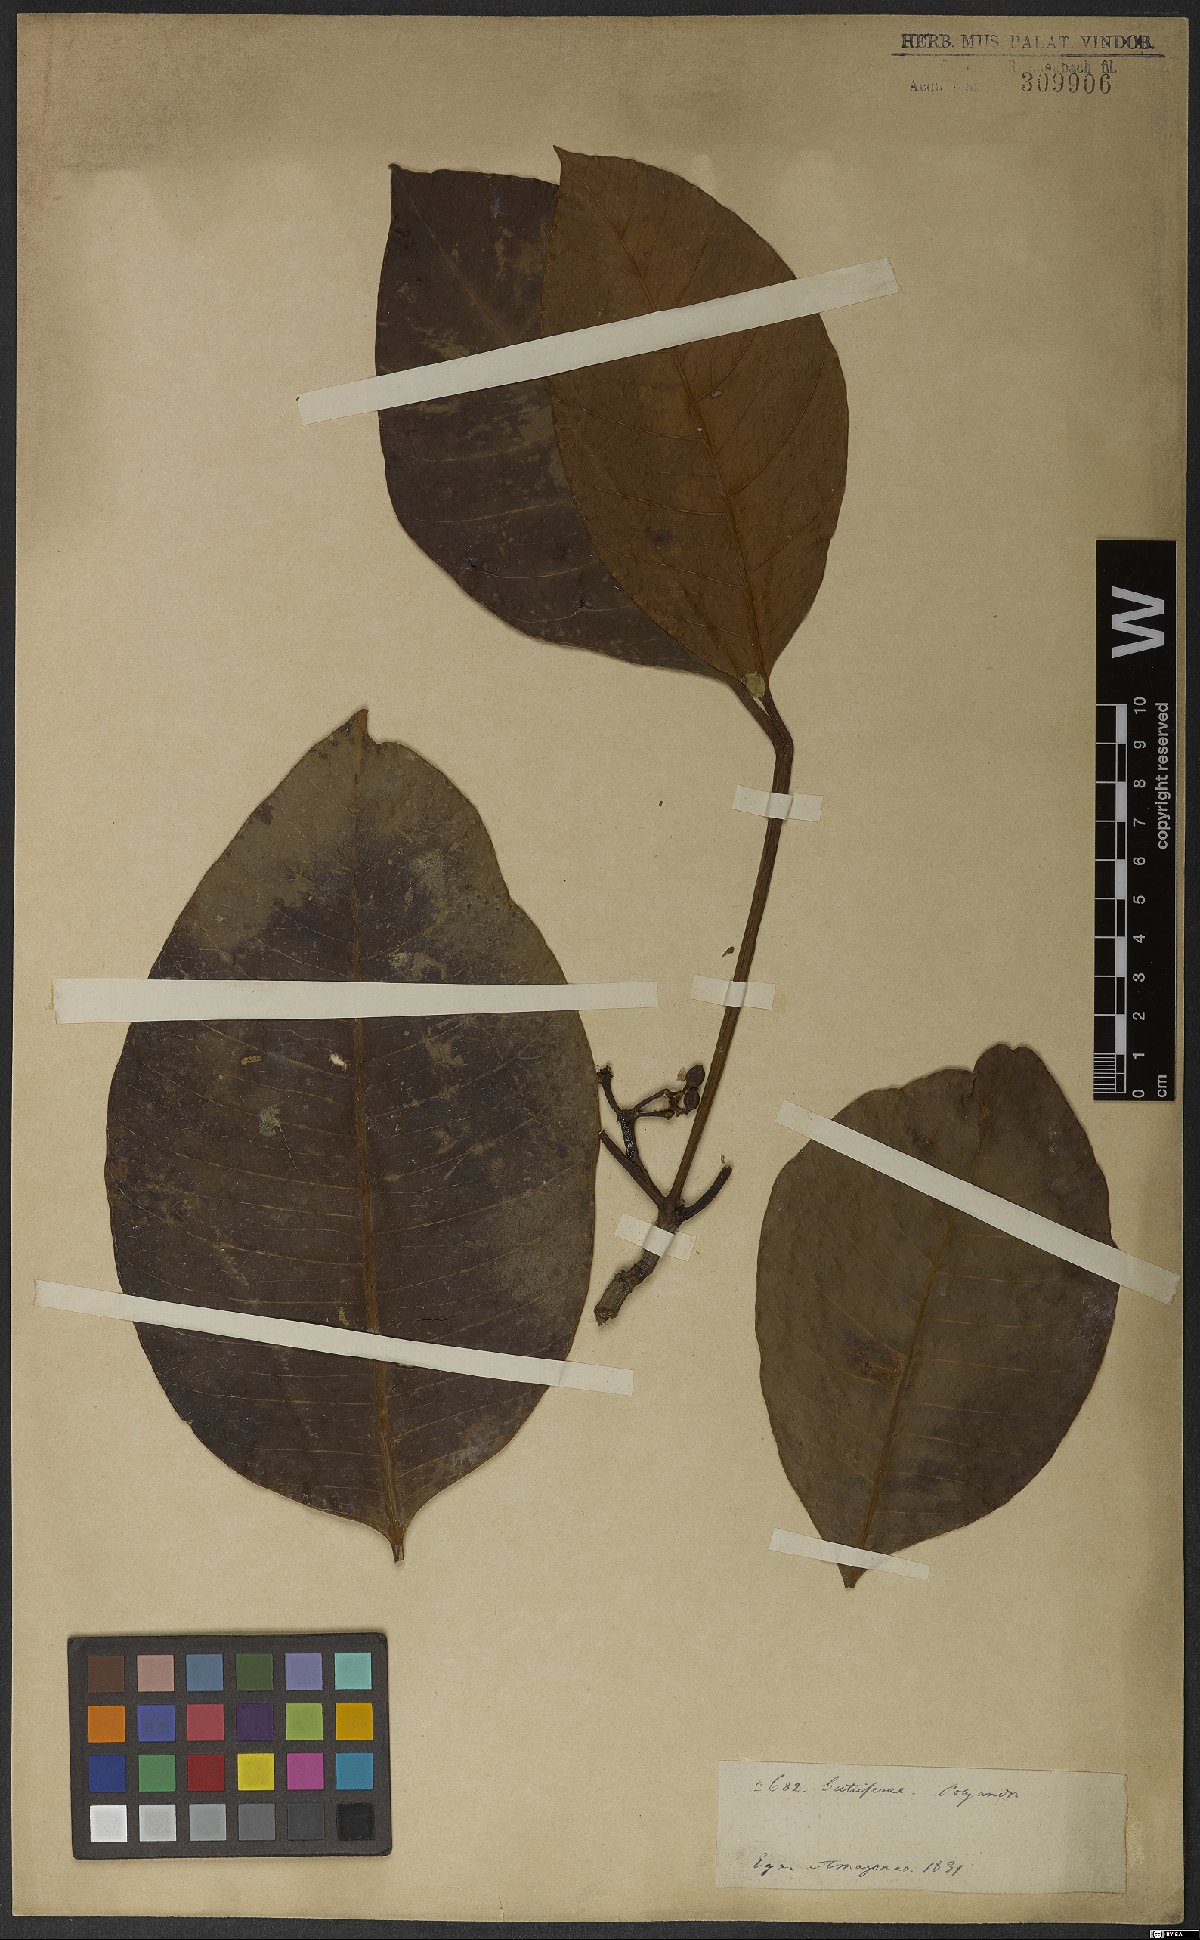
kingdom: Plantae
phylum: Tracheophyta
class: Magnoliopsida
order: Malpighiales
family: Clusiaceae
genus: Tovomita
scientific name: Tovomita macrophylla
